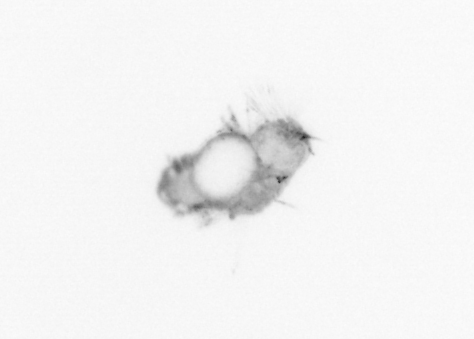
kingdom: Animalia
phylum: Annelida
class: Polychaeta
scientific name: Polychaeta
